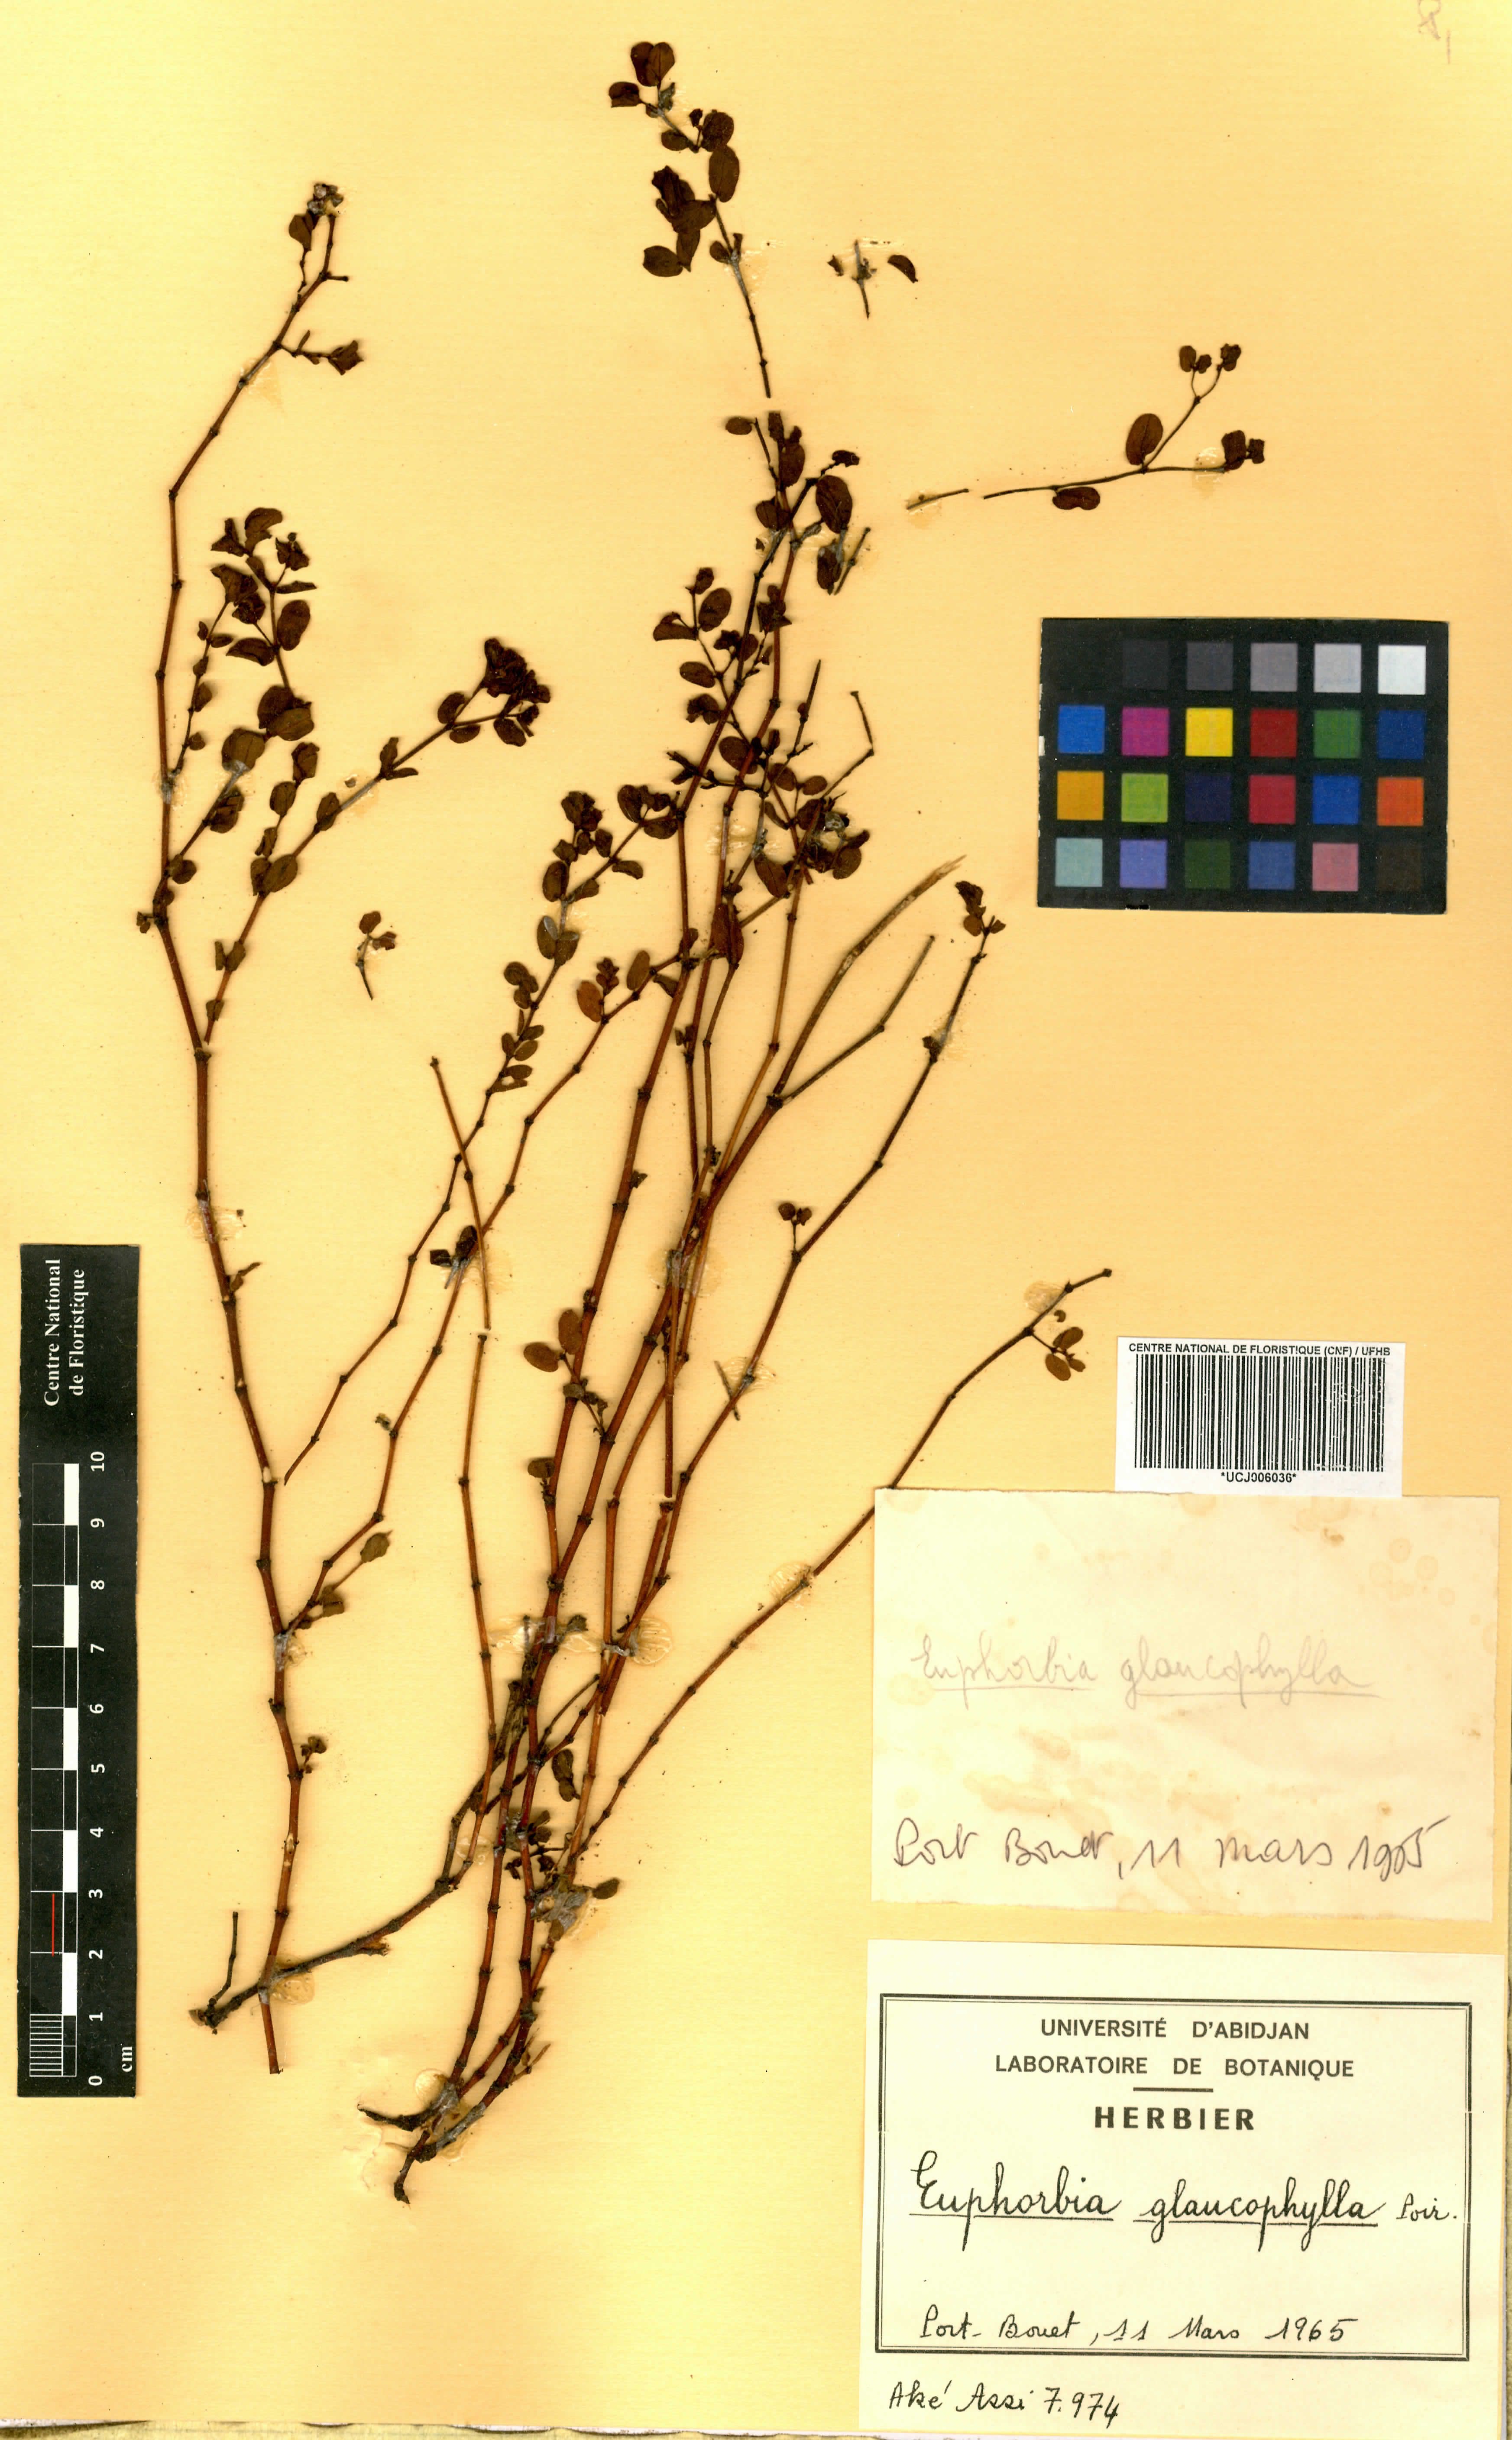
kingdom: Plantae
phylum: Tracheophyta
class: Magnoliopsida
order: Malpighiales
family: Euphorbiaceae
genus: Euphorbia
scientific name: Euphorbia glaucophylla
